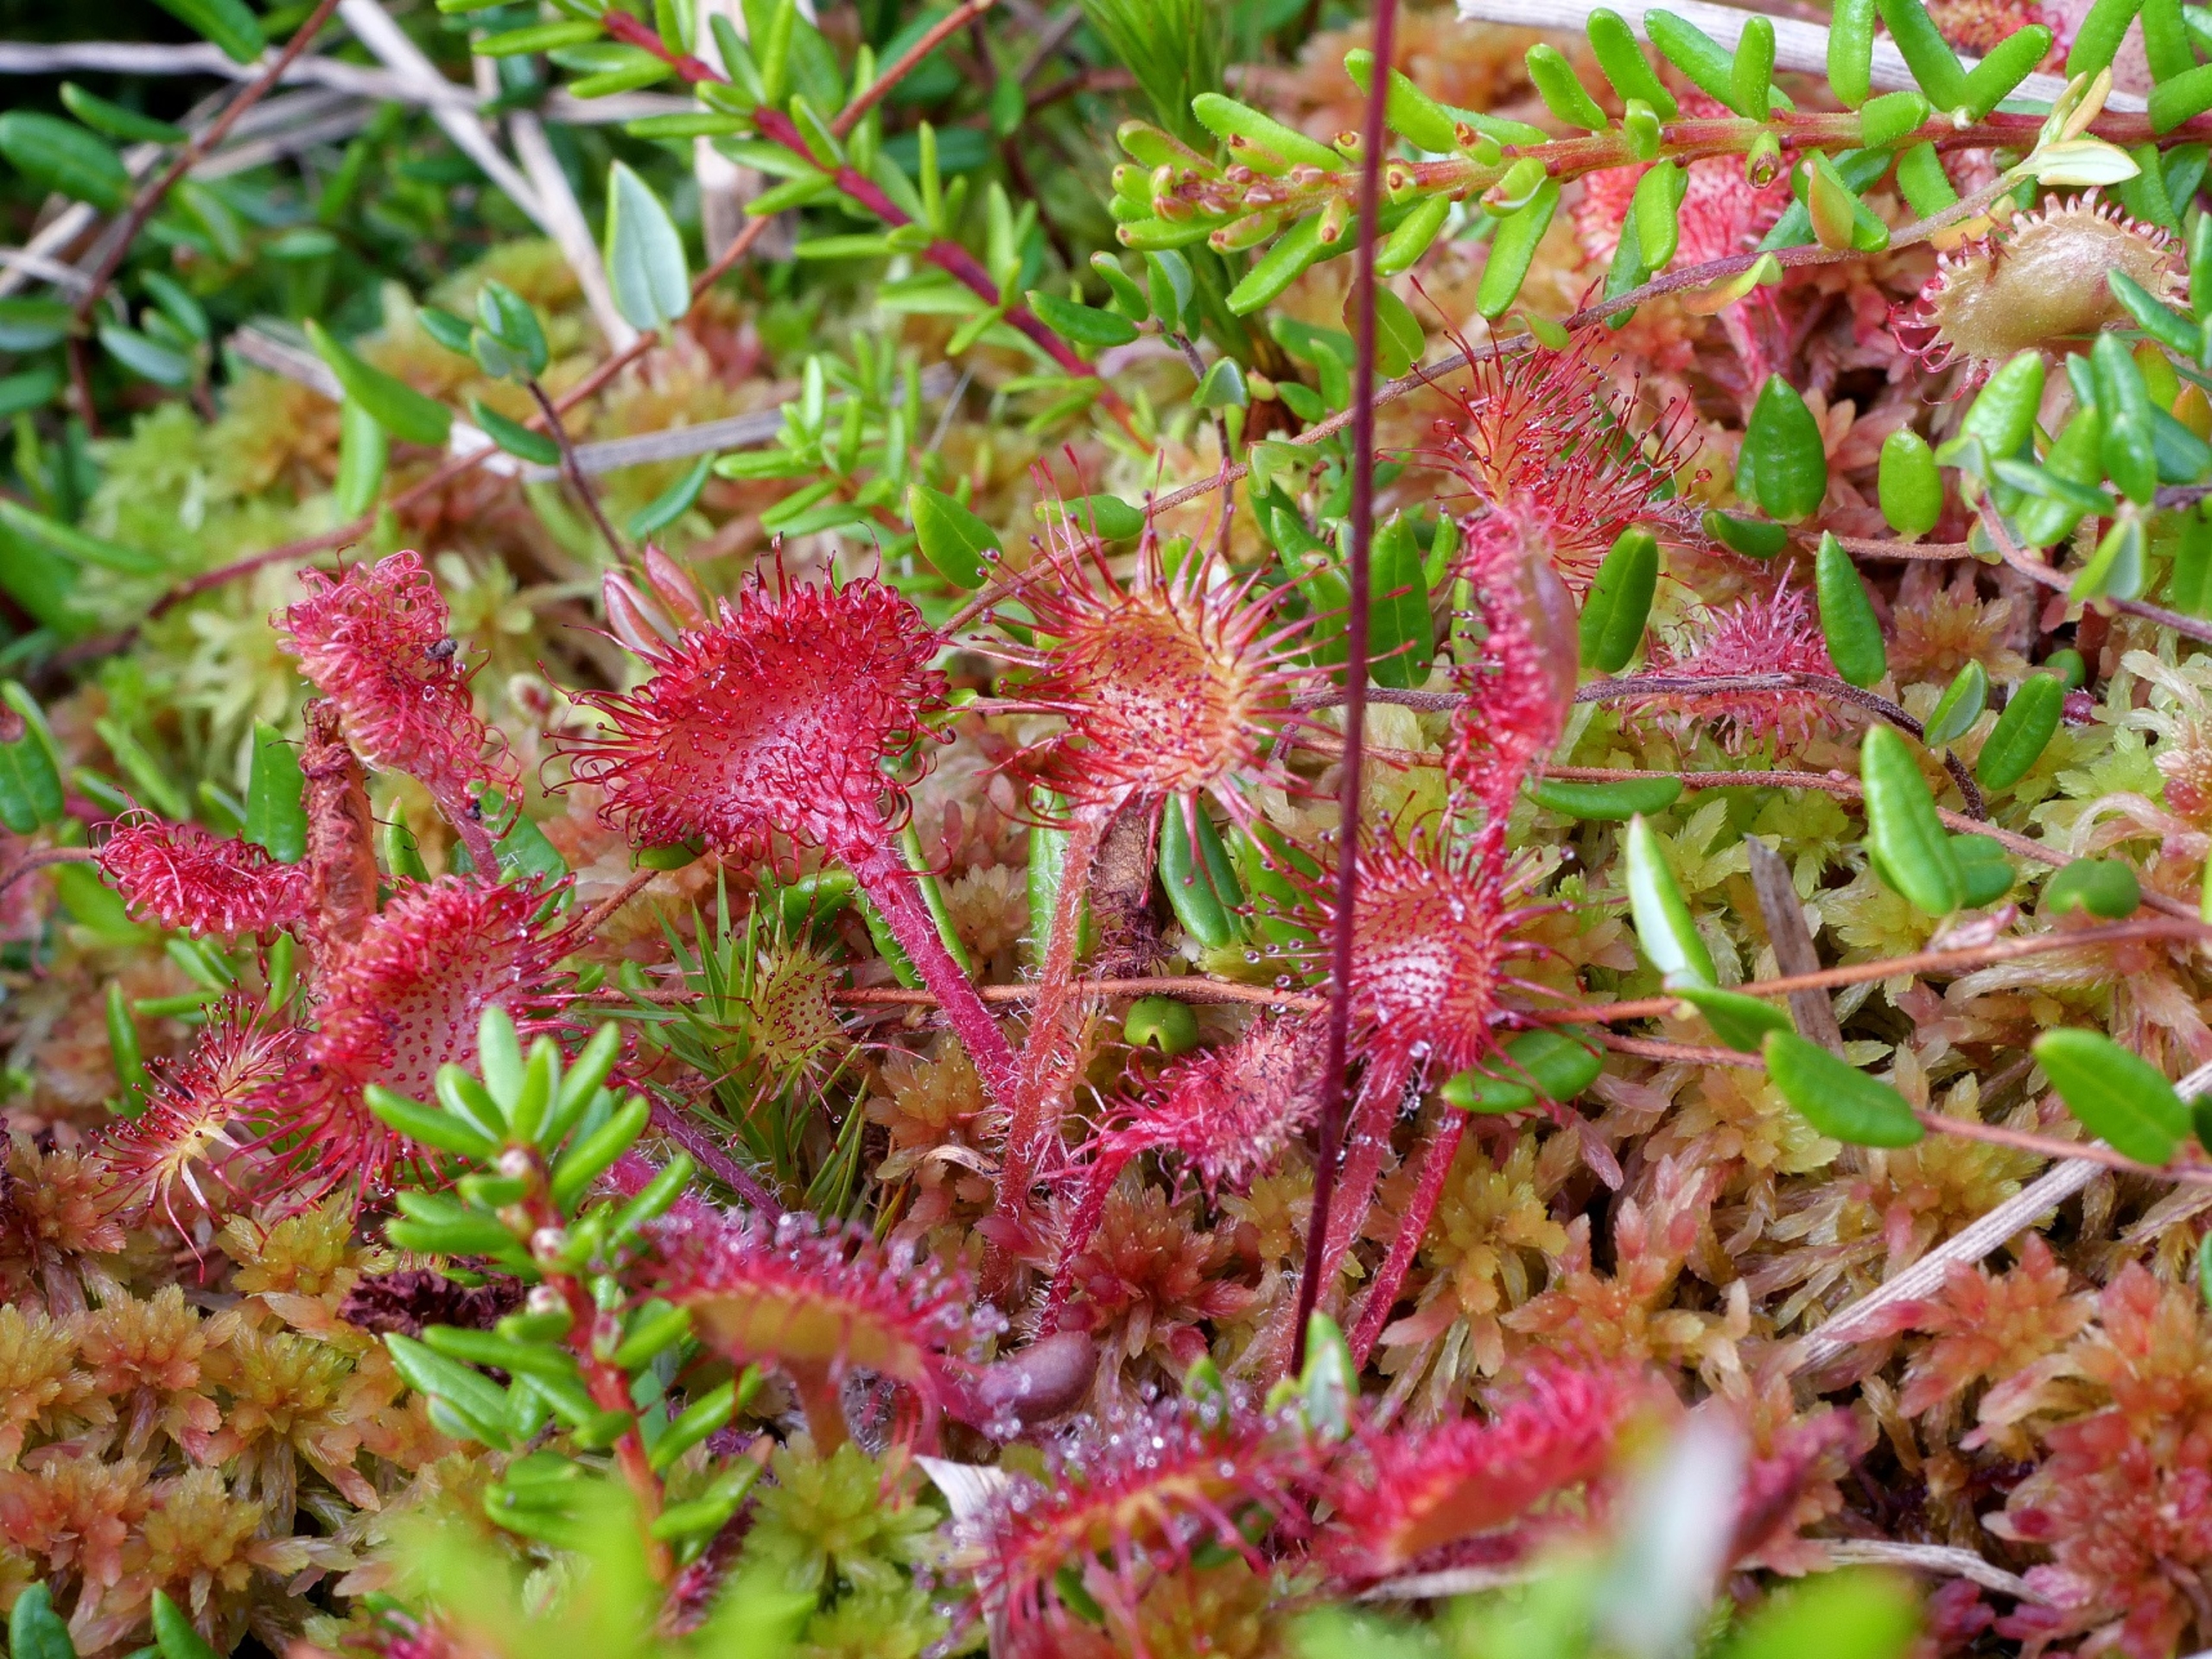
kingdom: Plantae
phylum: Tracheophyta
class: Magnoliopsida
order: Caryophyllales
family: Droseraceae
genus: Drosera
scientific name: Drosera rotundifolia
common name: Rundbladet soldug
